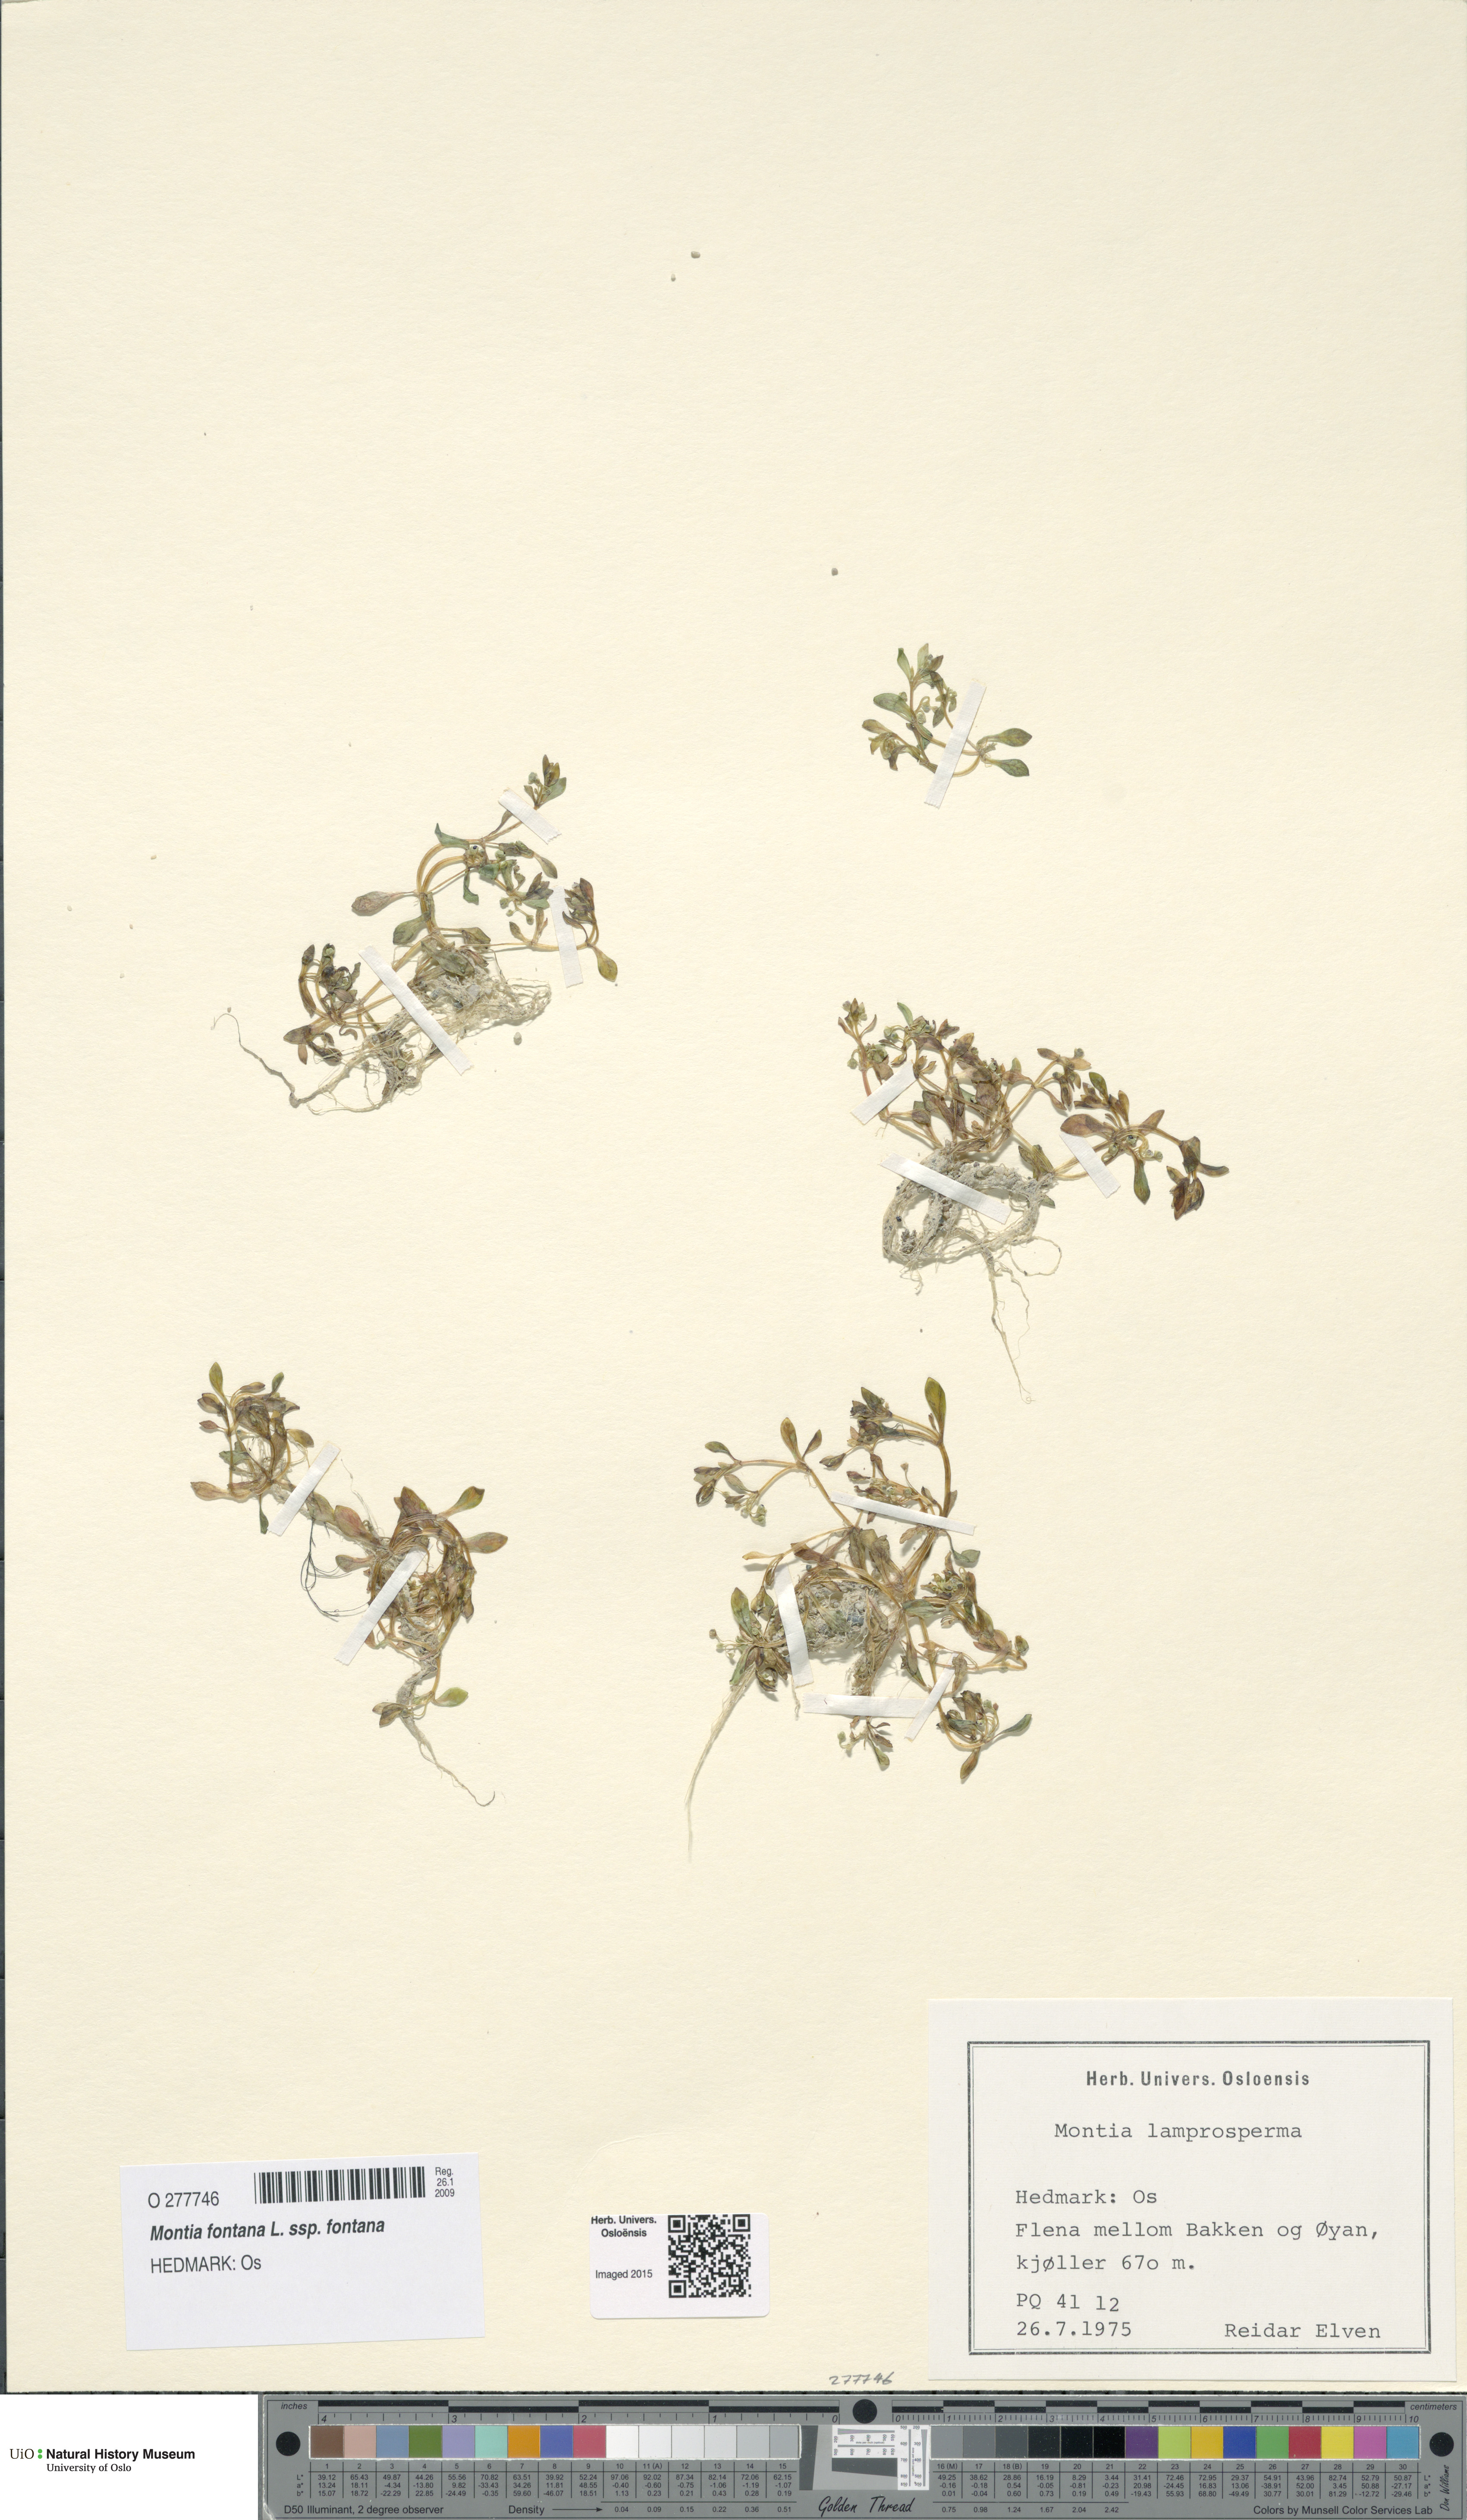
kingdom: Plantae
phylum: Tracheophyta
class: Magnoliopsida
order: Caryophyllales
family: Montiaceae
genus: Montia
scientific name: Montia fontana
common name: Blinks
